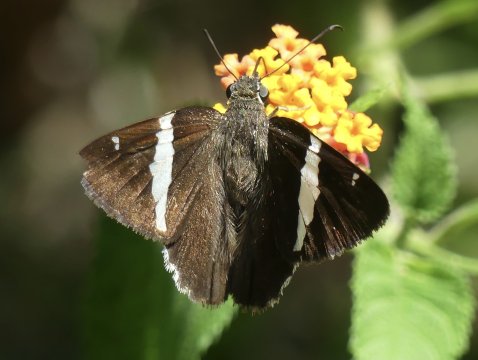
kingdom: Animalia
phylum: Arthropoda
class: Insecta
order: Lepidoptera
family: Hesperiidae
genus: Autochton
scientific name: Autochton zarex
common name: Sharp Banded-Skipper
